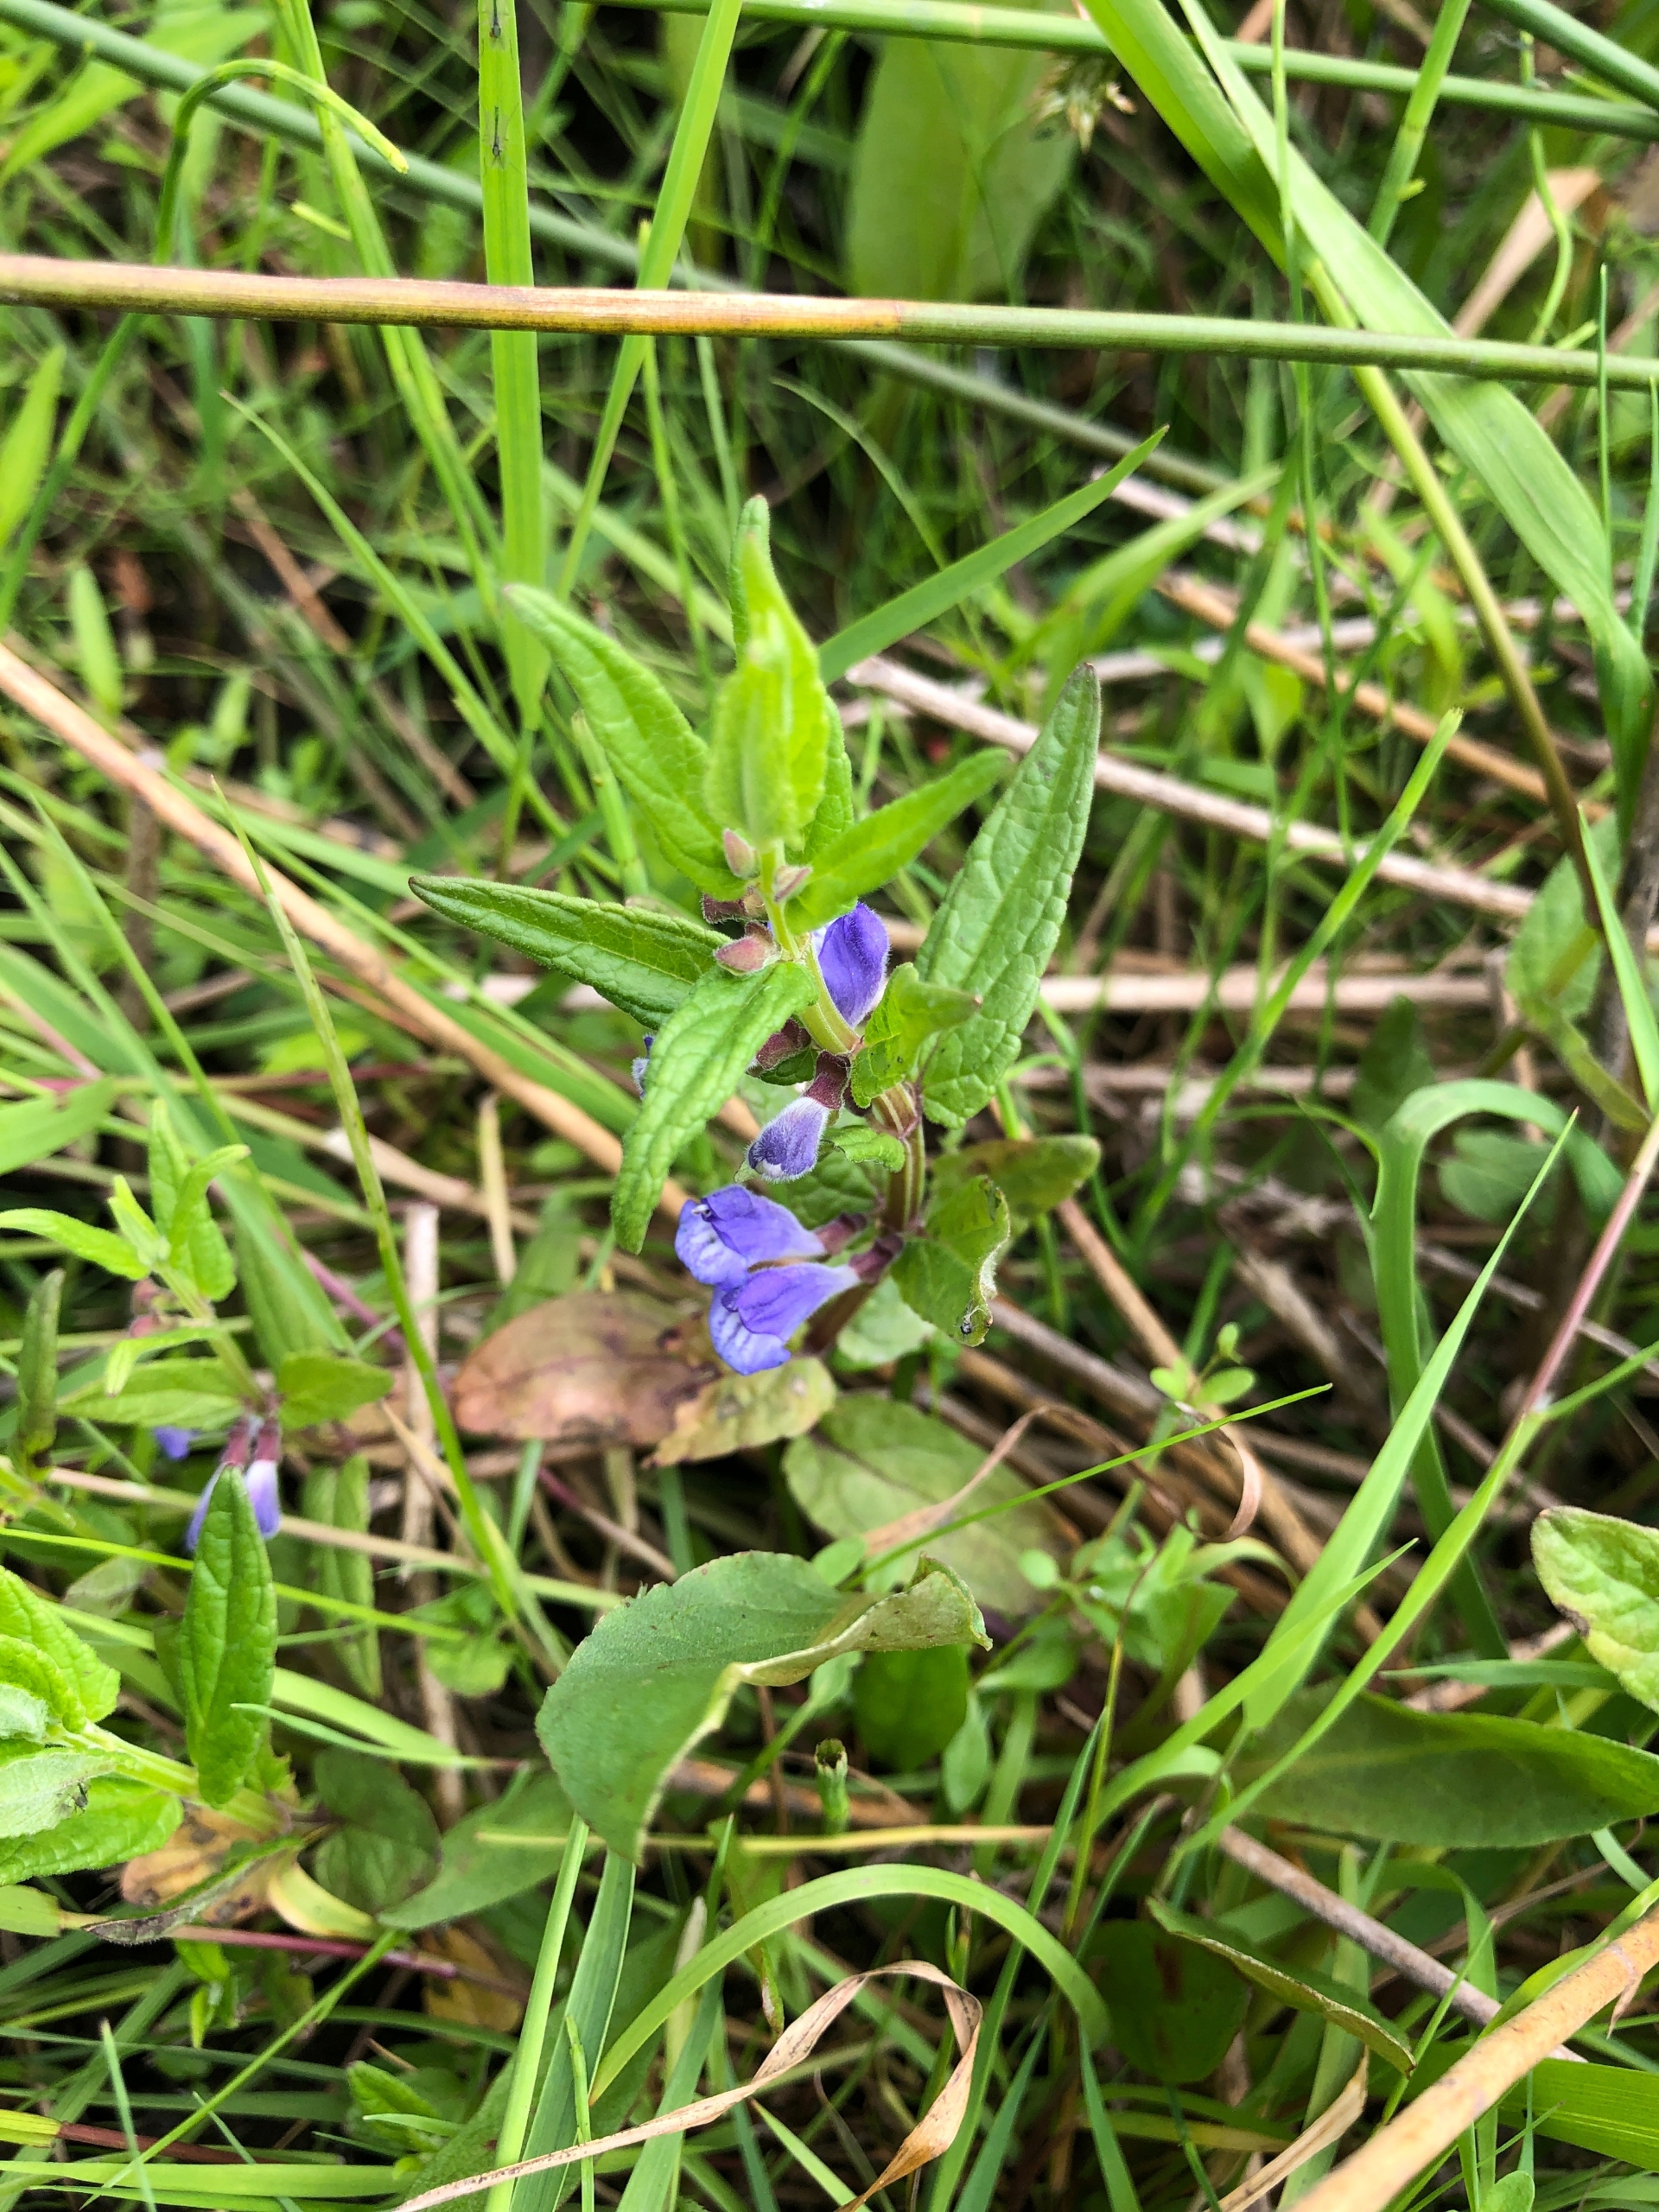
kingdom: Plantae
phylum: Tracheophyta
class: Magnoliopsida
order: Lamiales
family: Lamiaceae
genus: Scutellaria
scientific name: Scutellaria galericulata
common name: Almindelig skjolddrager
